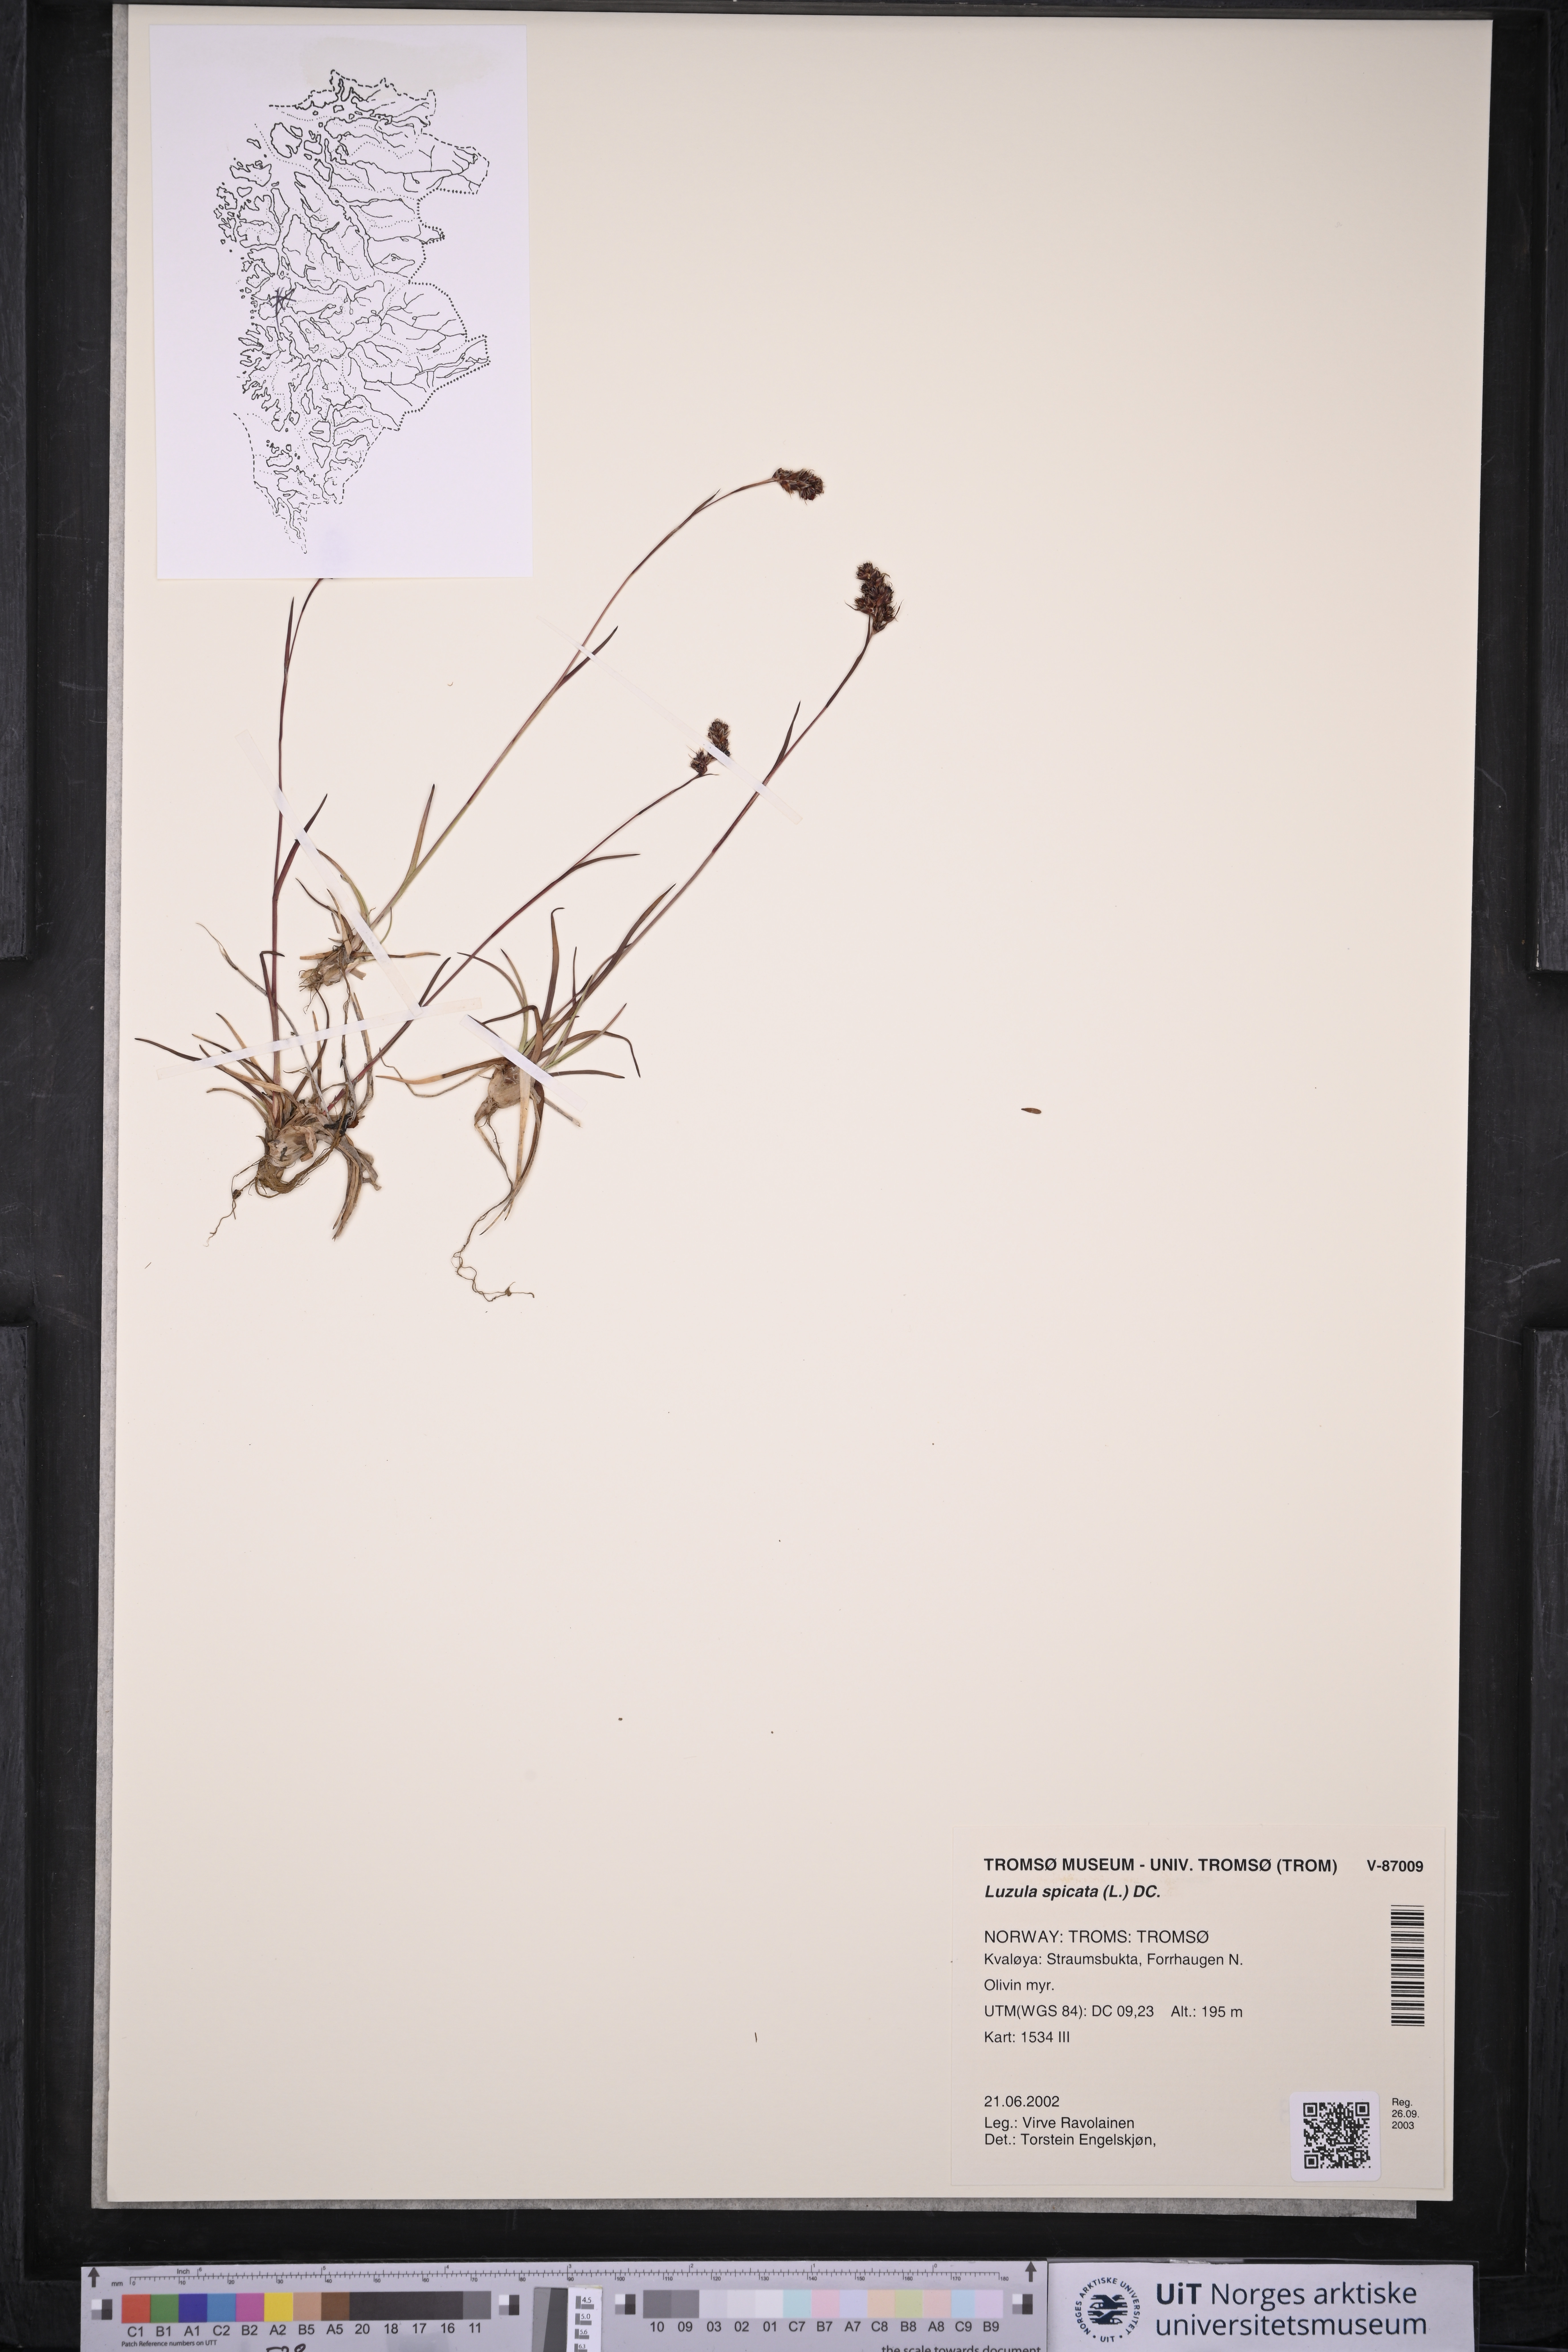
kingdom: Plantae
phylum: Tracheophyta
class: Liliopsida
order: Poales
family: Juncaceae
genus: Luzula
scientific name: Luzula spicata
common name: Spiked wood-rush
